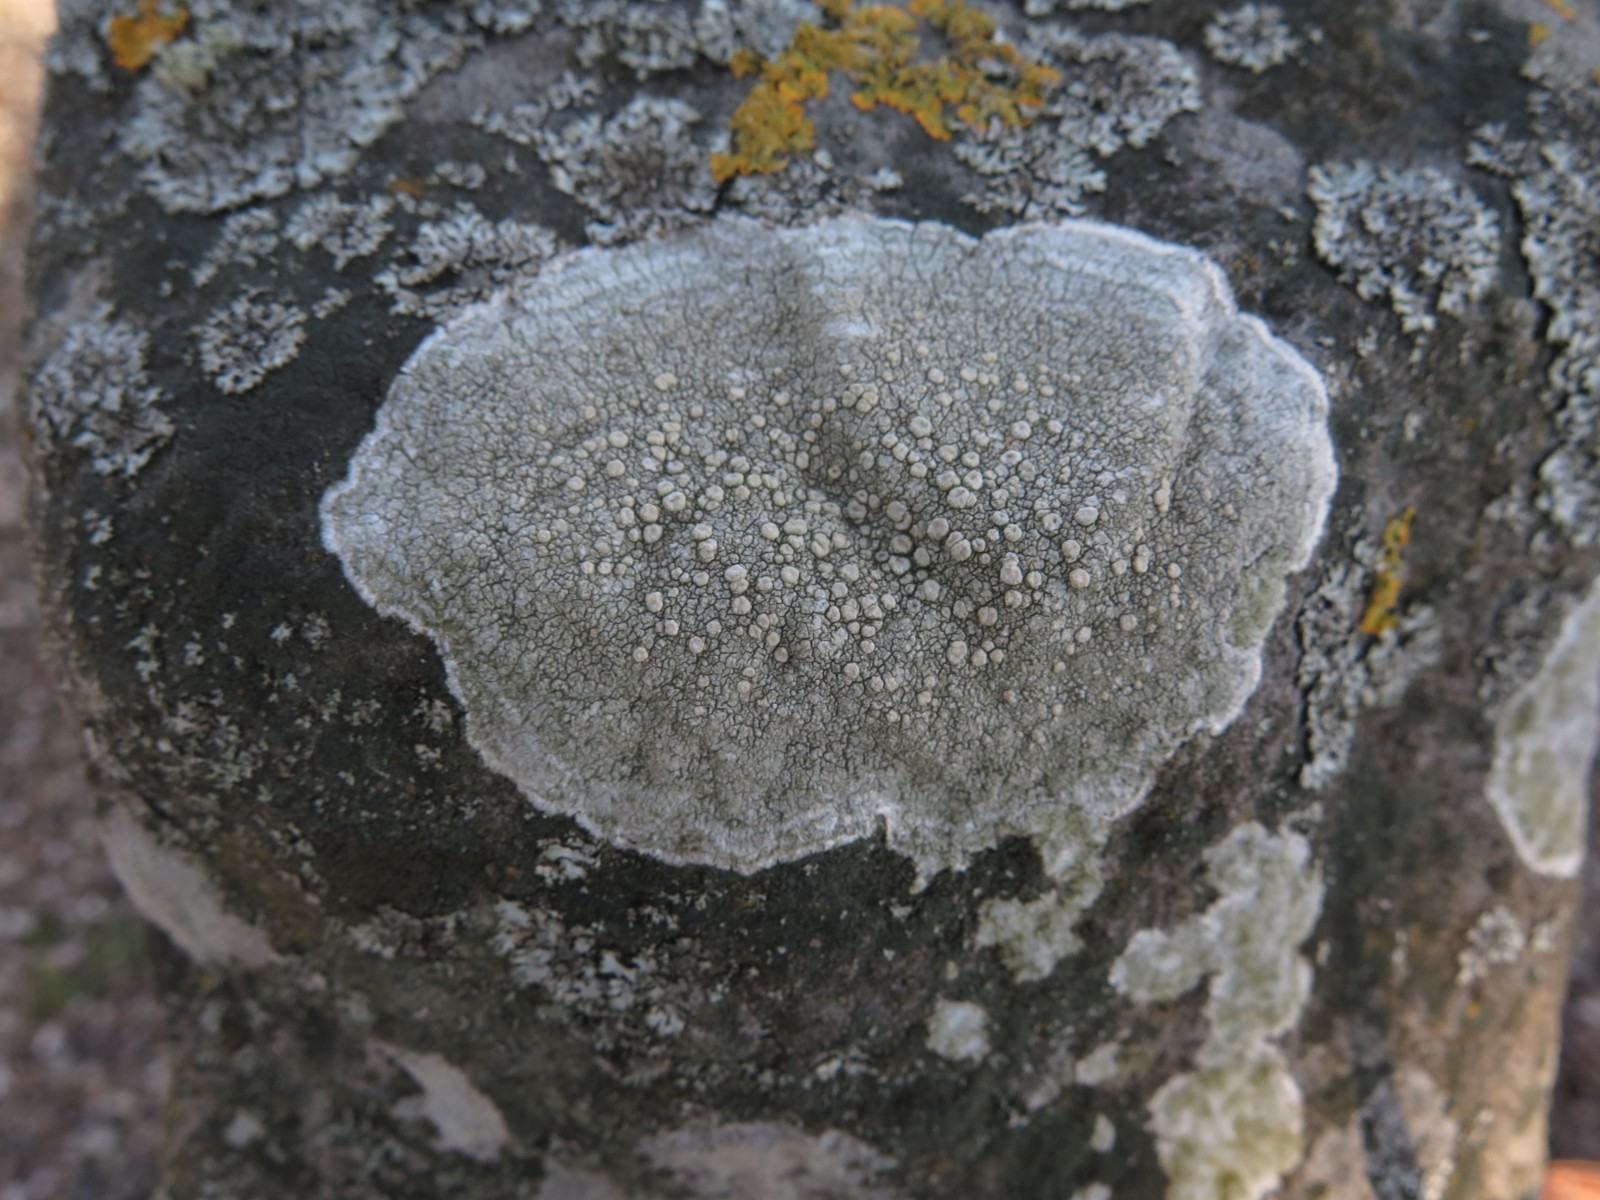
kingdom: Fungi
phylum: Ascomycota
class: Lecanoromycetes
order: Pertusariales
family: Ochrolechiaceae
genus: Ochrolechia
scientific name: Ochrolechia parella
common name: almindelig blegskivelav
